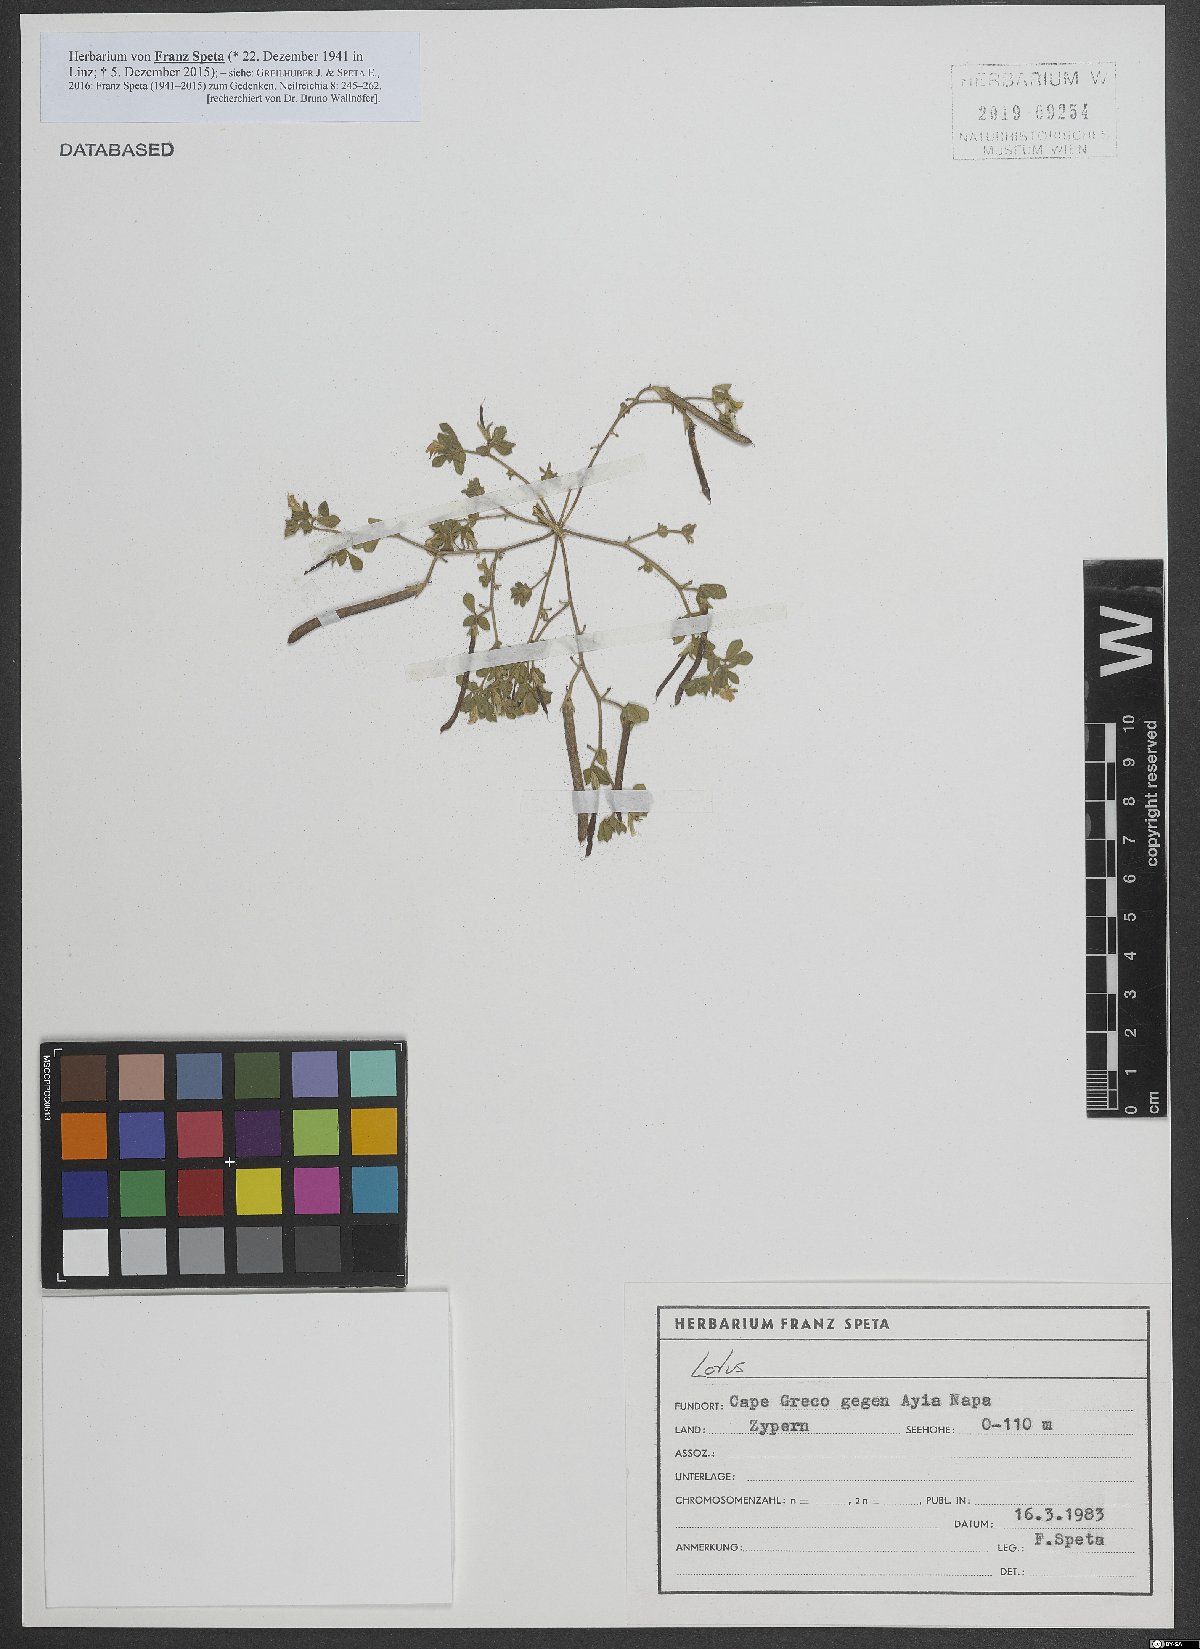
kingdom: Plantae
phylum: Tracheophyta
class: Magnoliopsida
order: Fabales
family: Fabaceae
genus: Lotus
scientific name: Lotus
